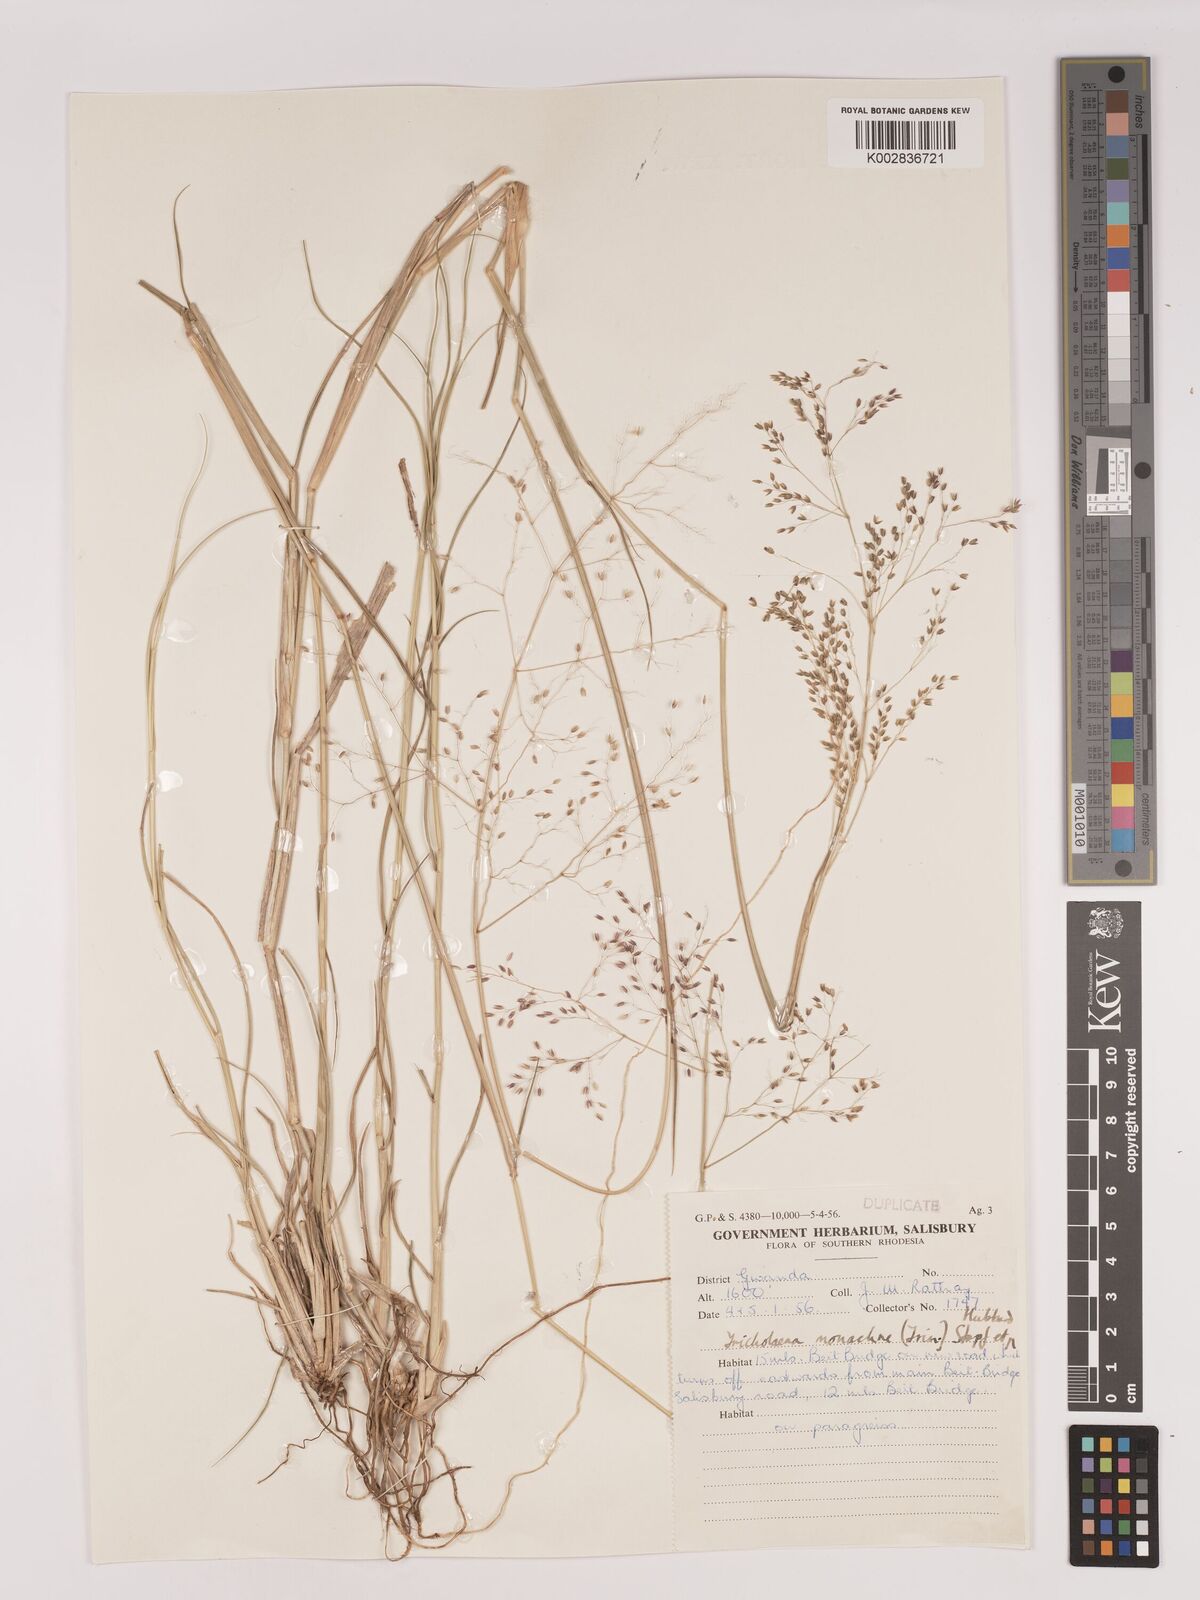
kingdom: Plantae
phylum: Tracheophyta
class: Liliopsida
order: Poales
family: Poaceae
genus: Tricholaena
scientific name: Tricholaena monachne
